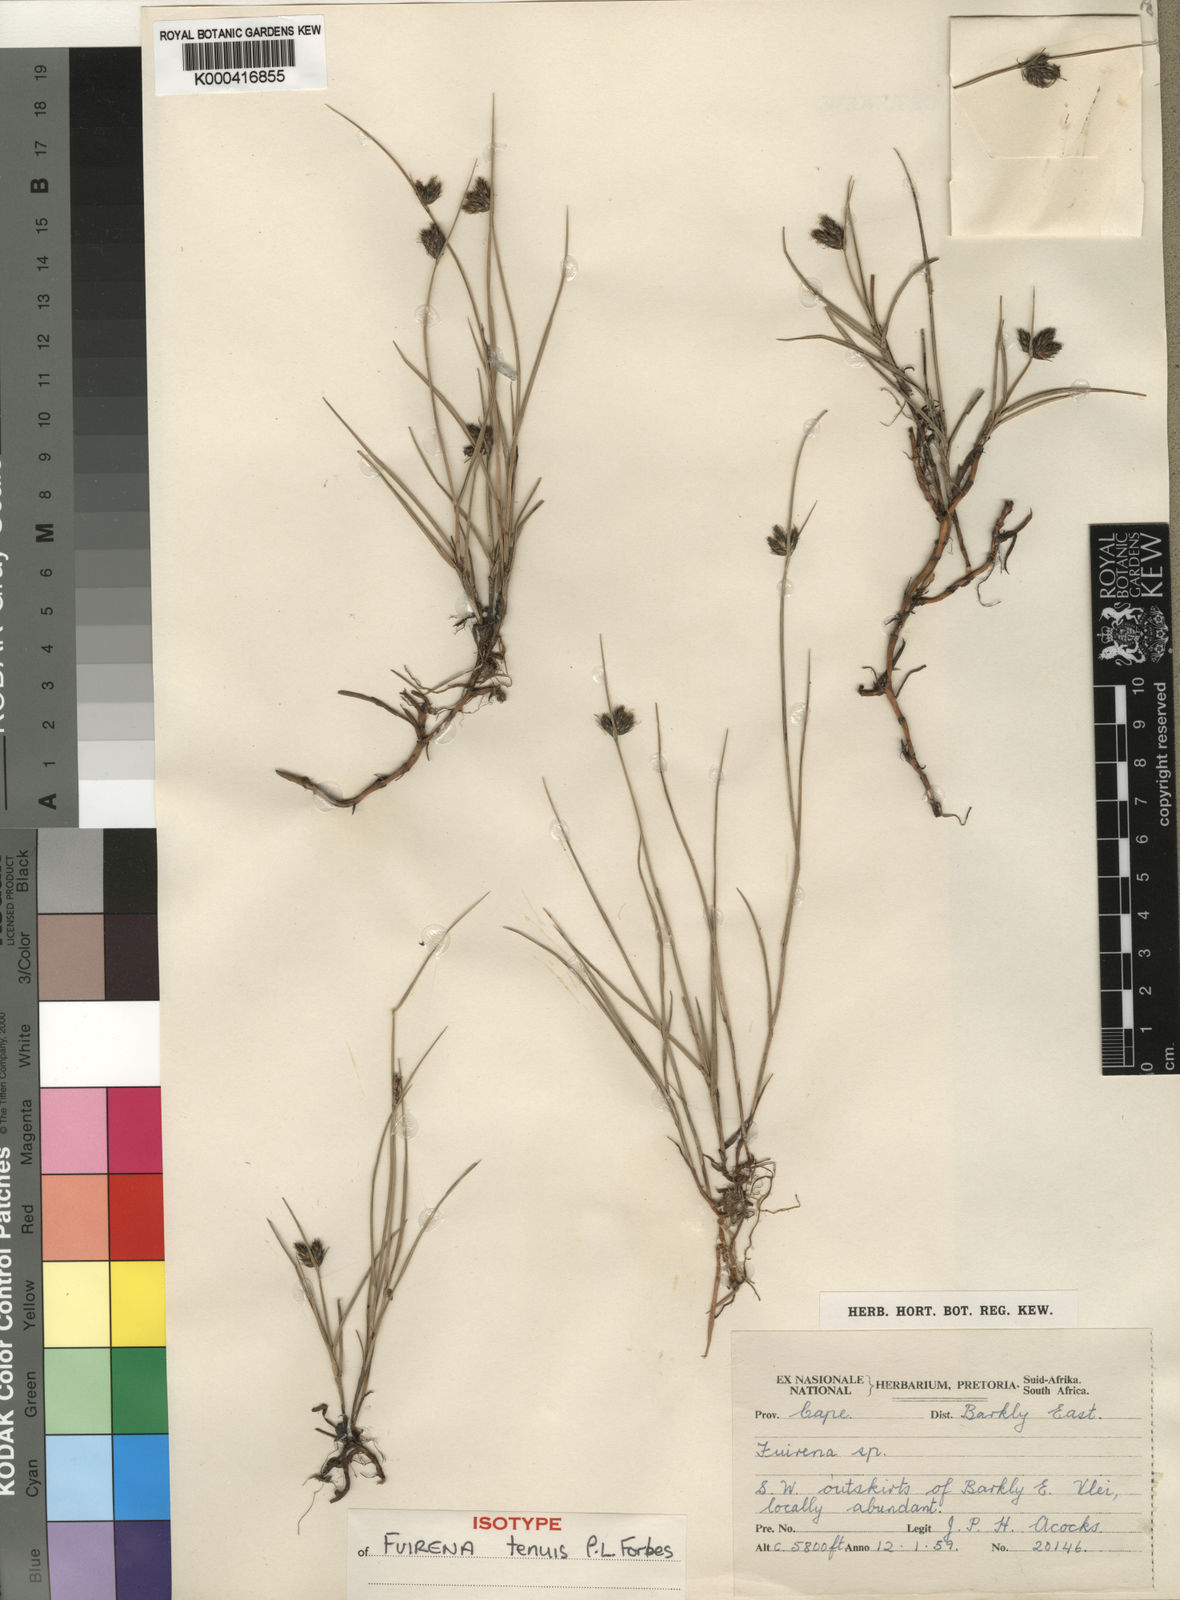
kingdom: Plantae
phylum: Tracheophyta
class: Liliopsida
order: Poales
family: Cyperaceae
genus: Fuirena
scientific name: Fuirena tenuis
